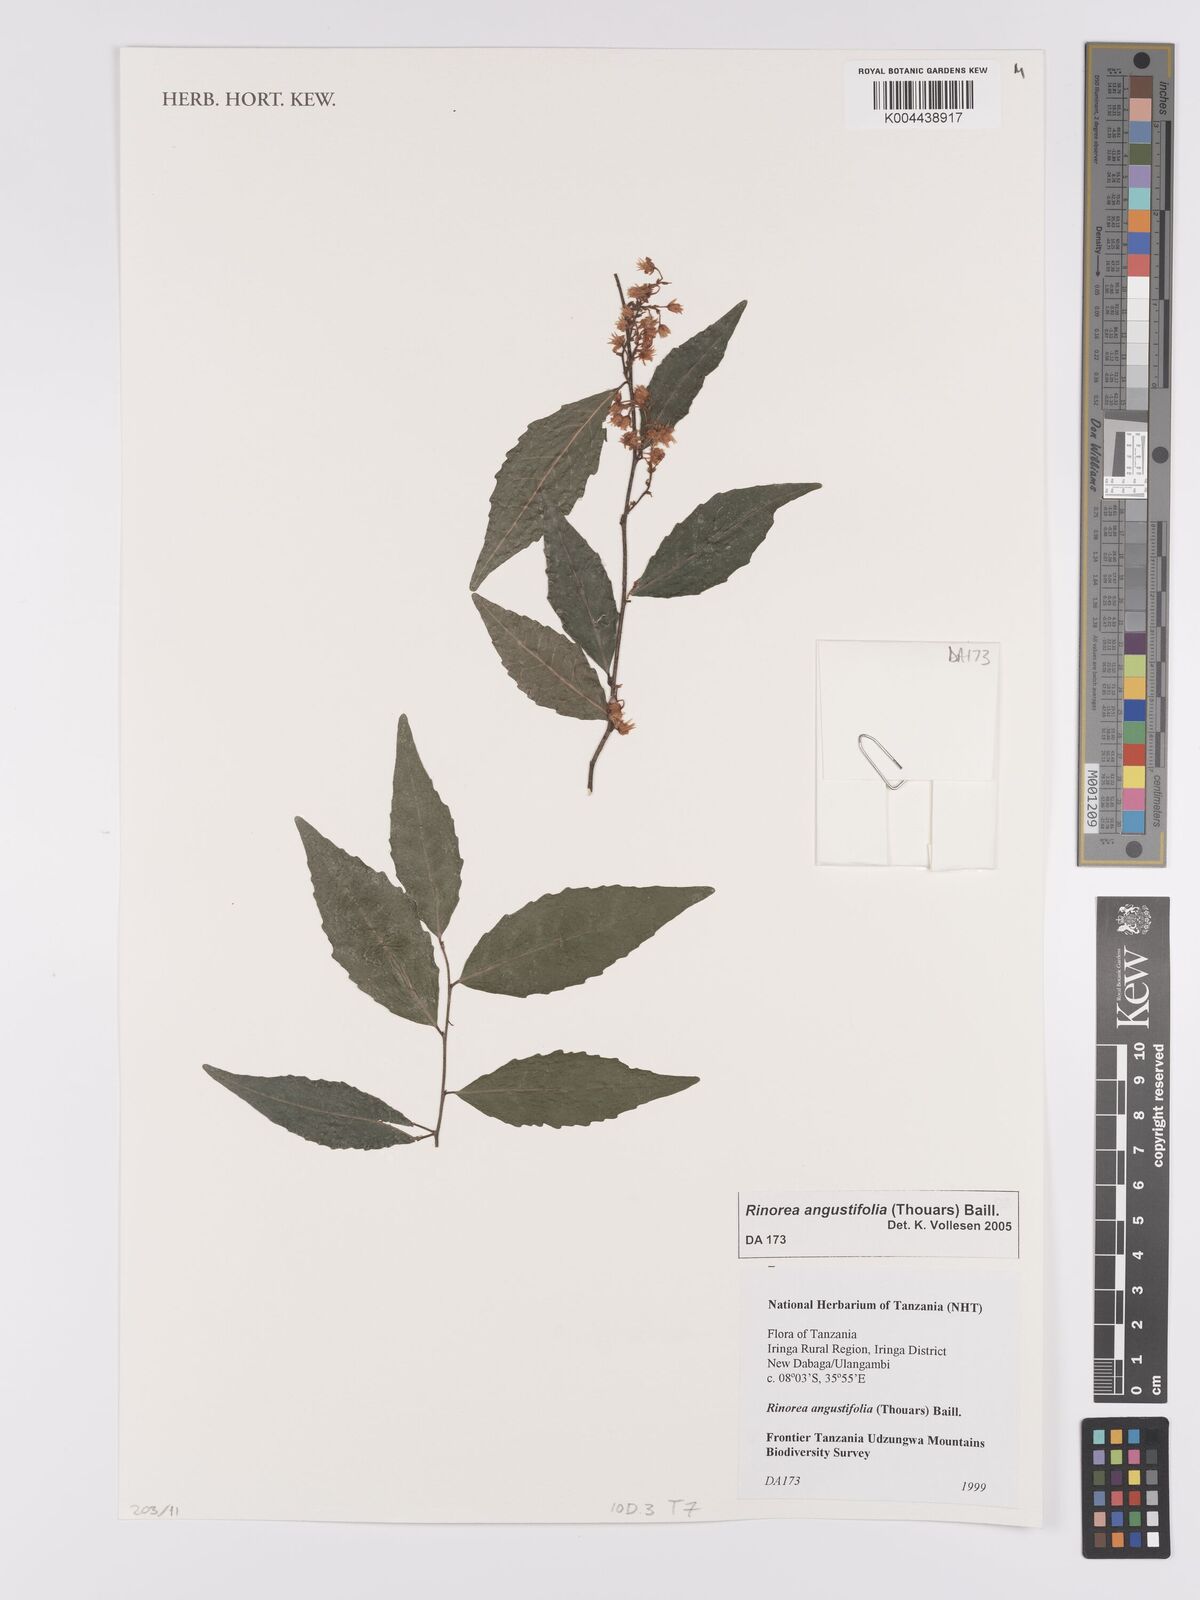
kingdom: Plantae
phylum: Tracheophyta
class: Magnoliopsida
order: Malpighiales
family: Violaceae
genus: Rinorea
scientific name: Rinorea angustifolia
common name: White violet-bush
